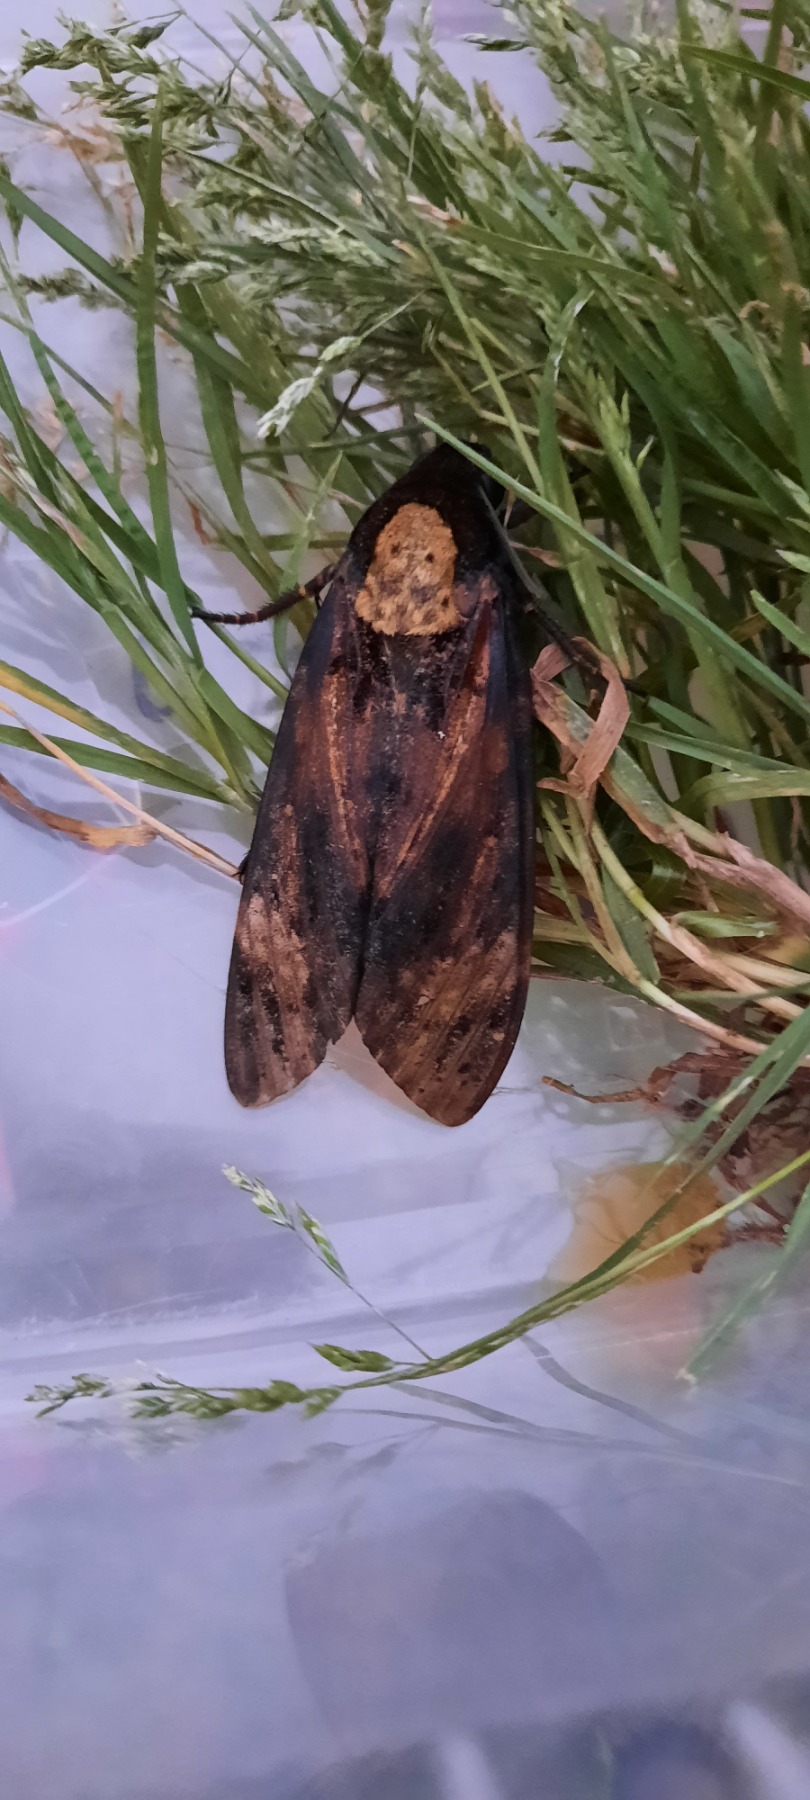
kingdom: Animalia
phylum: Arthropoda
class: Insecta
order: Lepidoptera
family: Sphingidae
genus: Acherontia
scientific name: Acherontia atropos
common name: Dødningehoved
